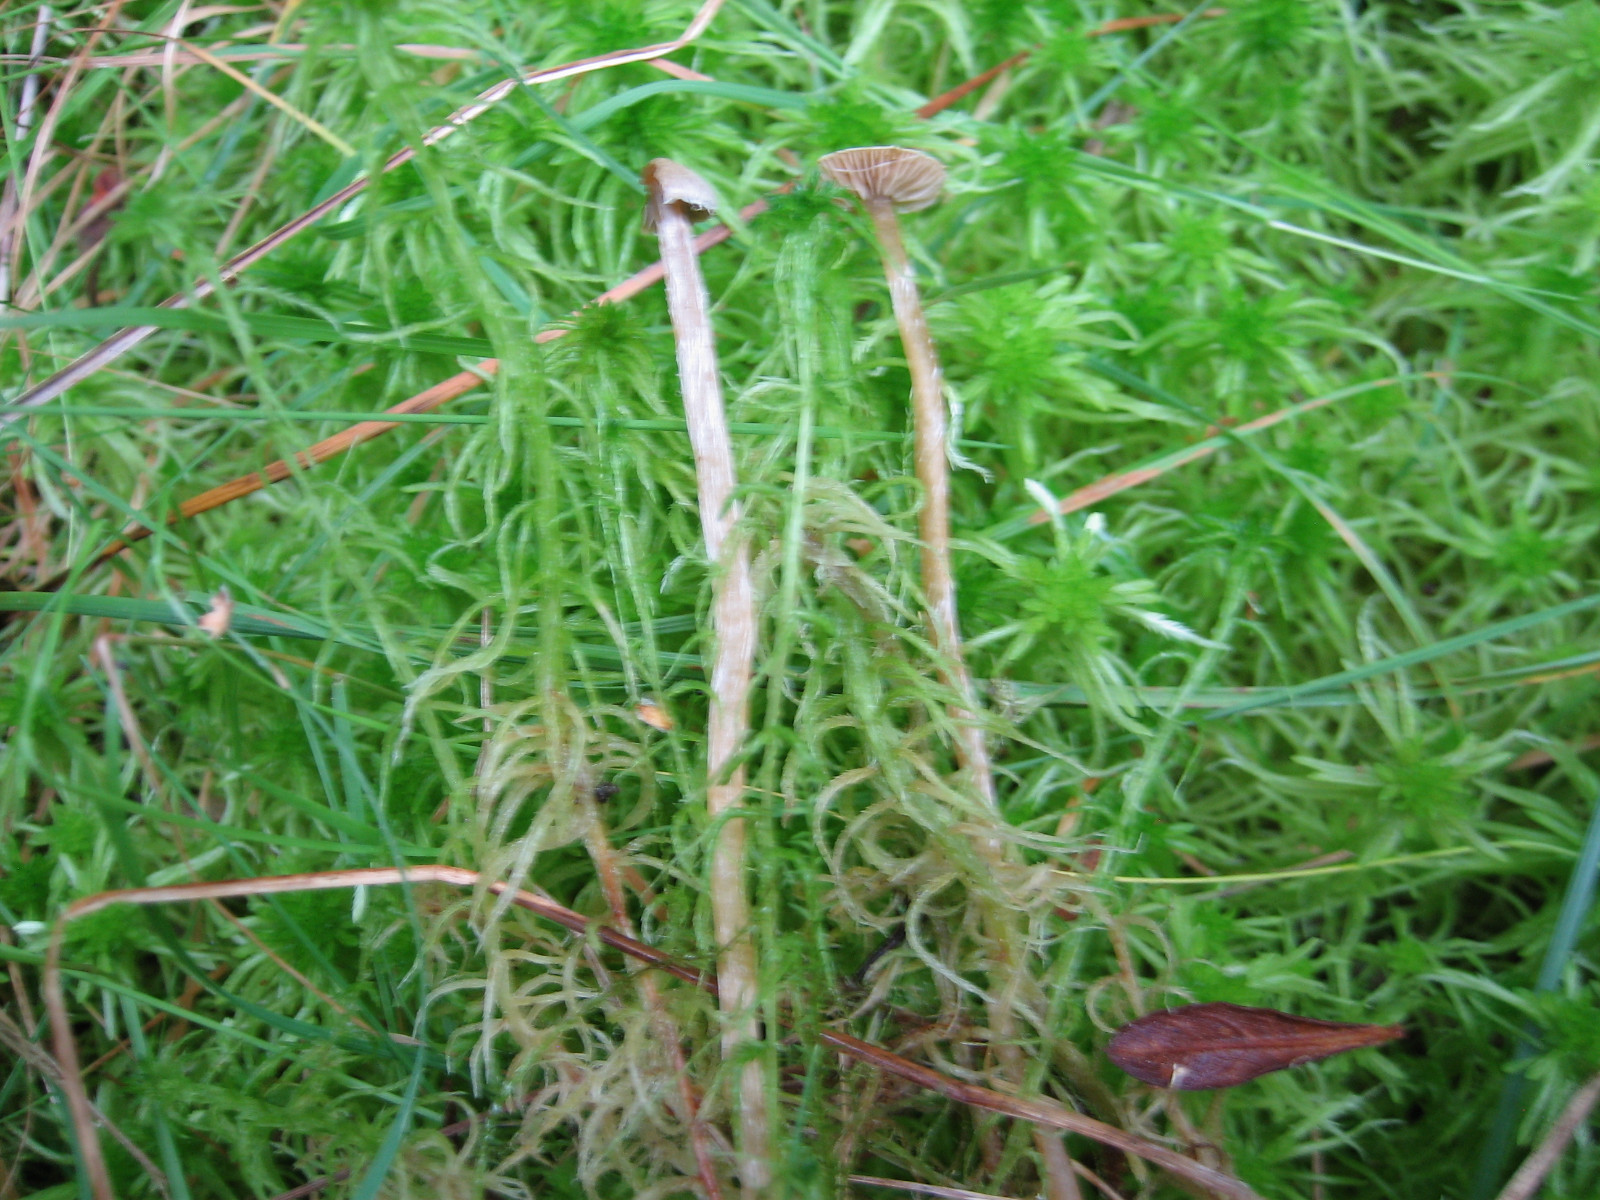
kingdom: Fungi
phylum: Basidiomycota
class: Agaricomycetes
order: Agaricales
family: Hymenogastraceae
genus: Galerina
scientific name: Galerina paludosa
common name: mose-hjelmhat
